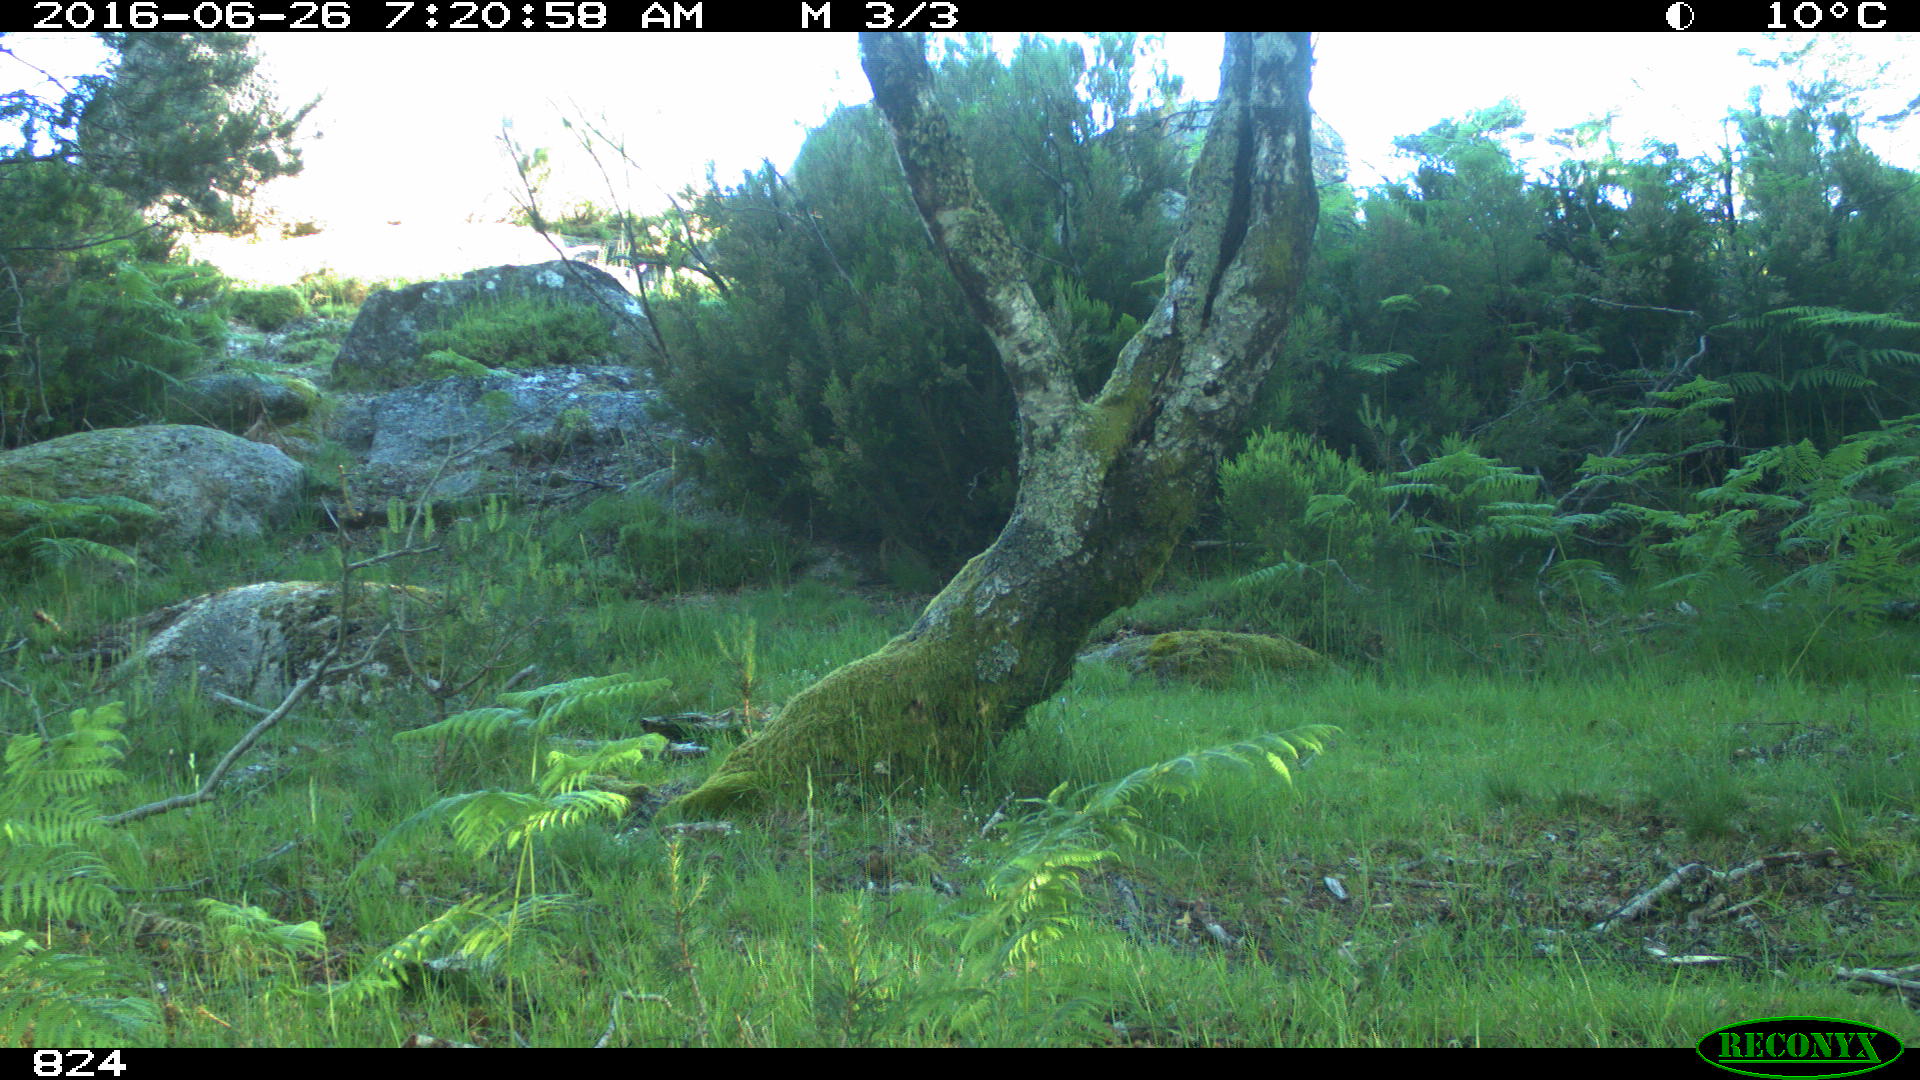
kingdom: Animalia
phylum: Chordata
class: Mammalia
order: Carnivora
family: Canidae
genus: Canis
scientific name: Canis lupus
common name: Gray wolf
